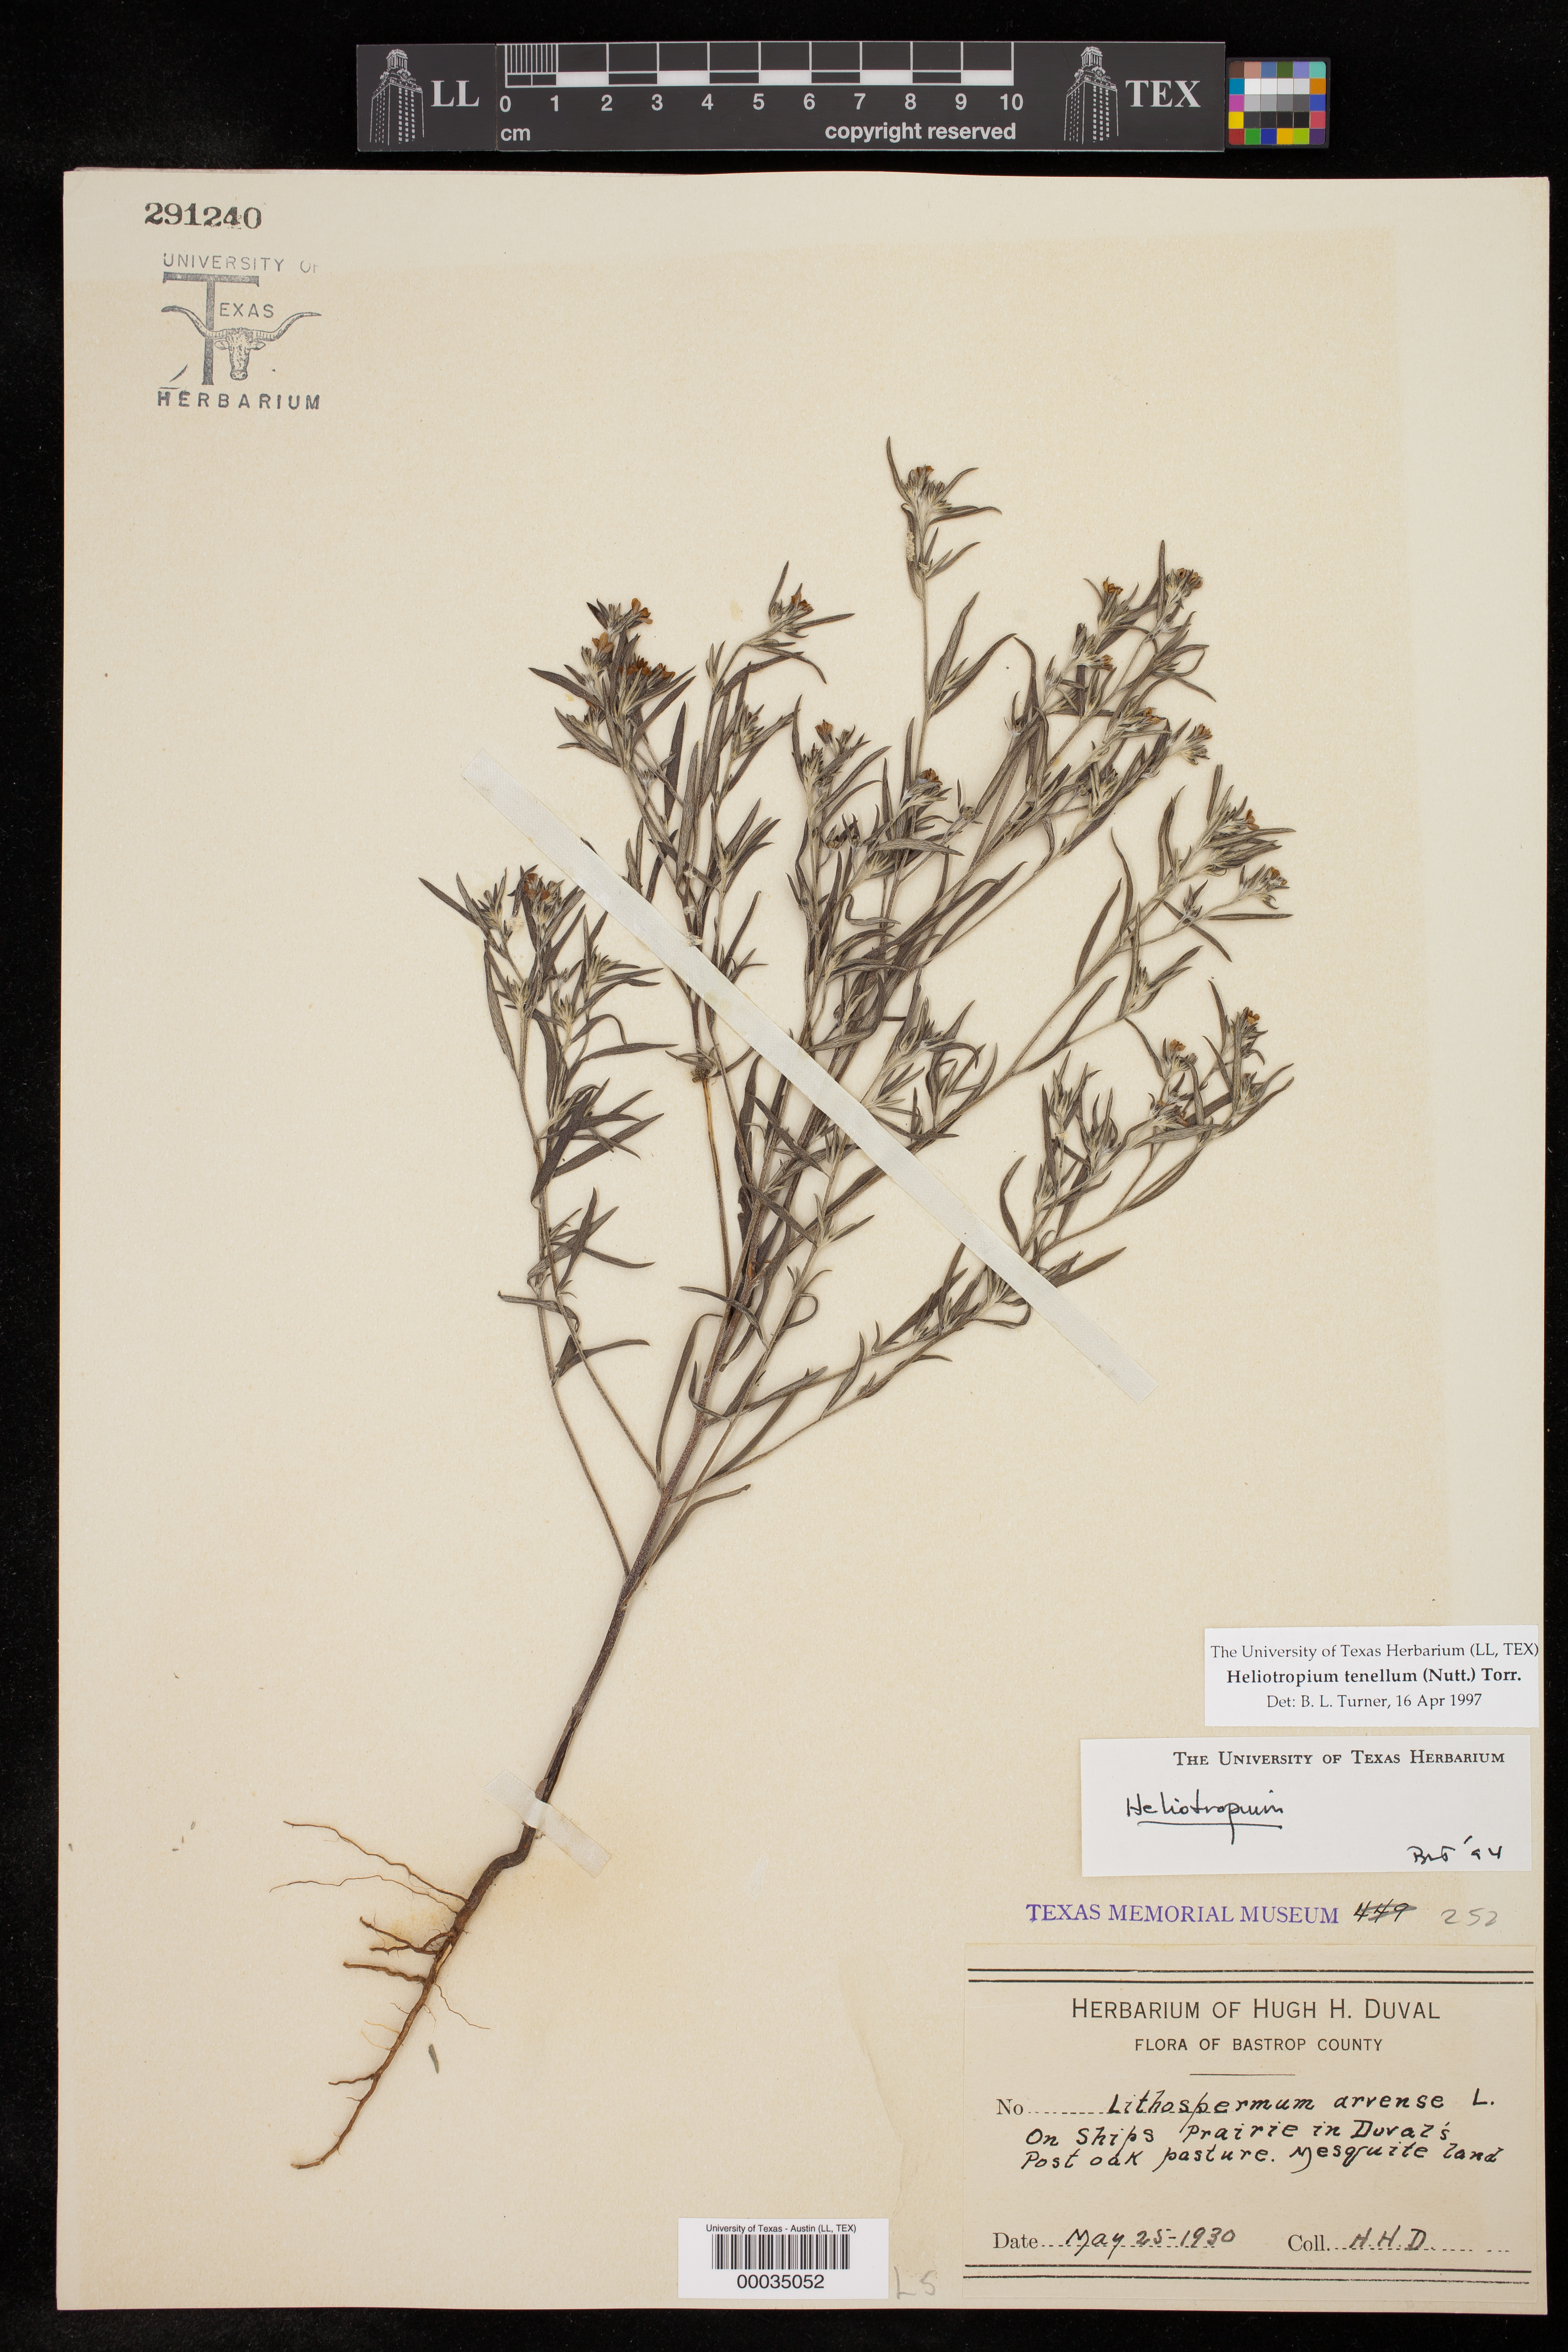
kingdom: Plantae
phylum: Tracheophyta
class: Magnoliopsida
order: Boraginales
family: Heliotropiaceae
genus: Euploca
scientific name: Euploca tenella
